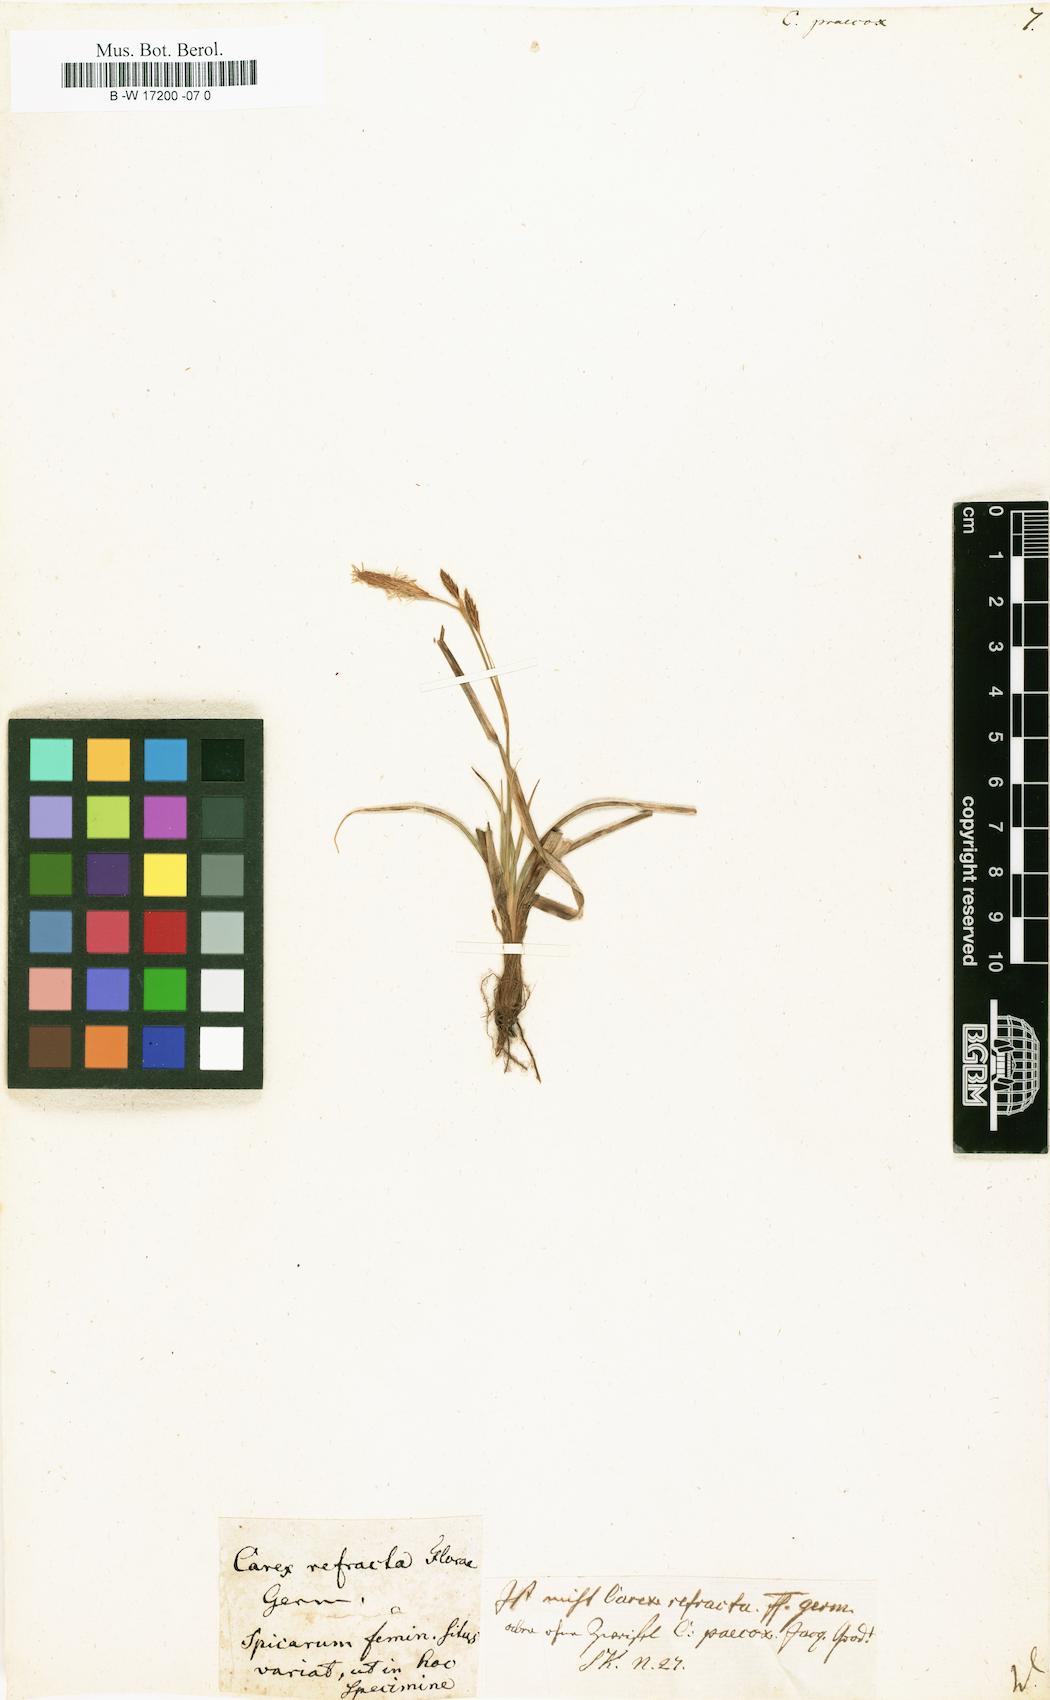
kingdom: Plantae
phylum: Tracheophyta
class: Liliopsida
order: Poales
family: Cyperaceae
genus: Carex
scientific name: Carex praecox
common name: Early sedge
